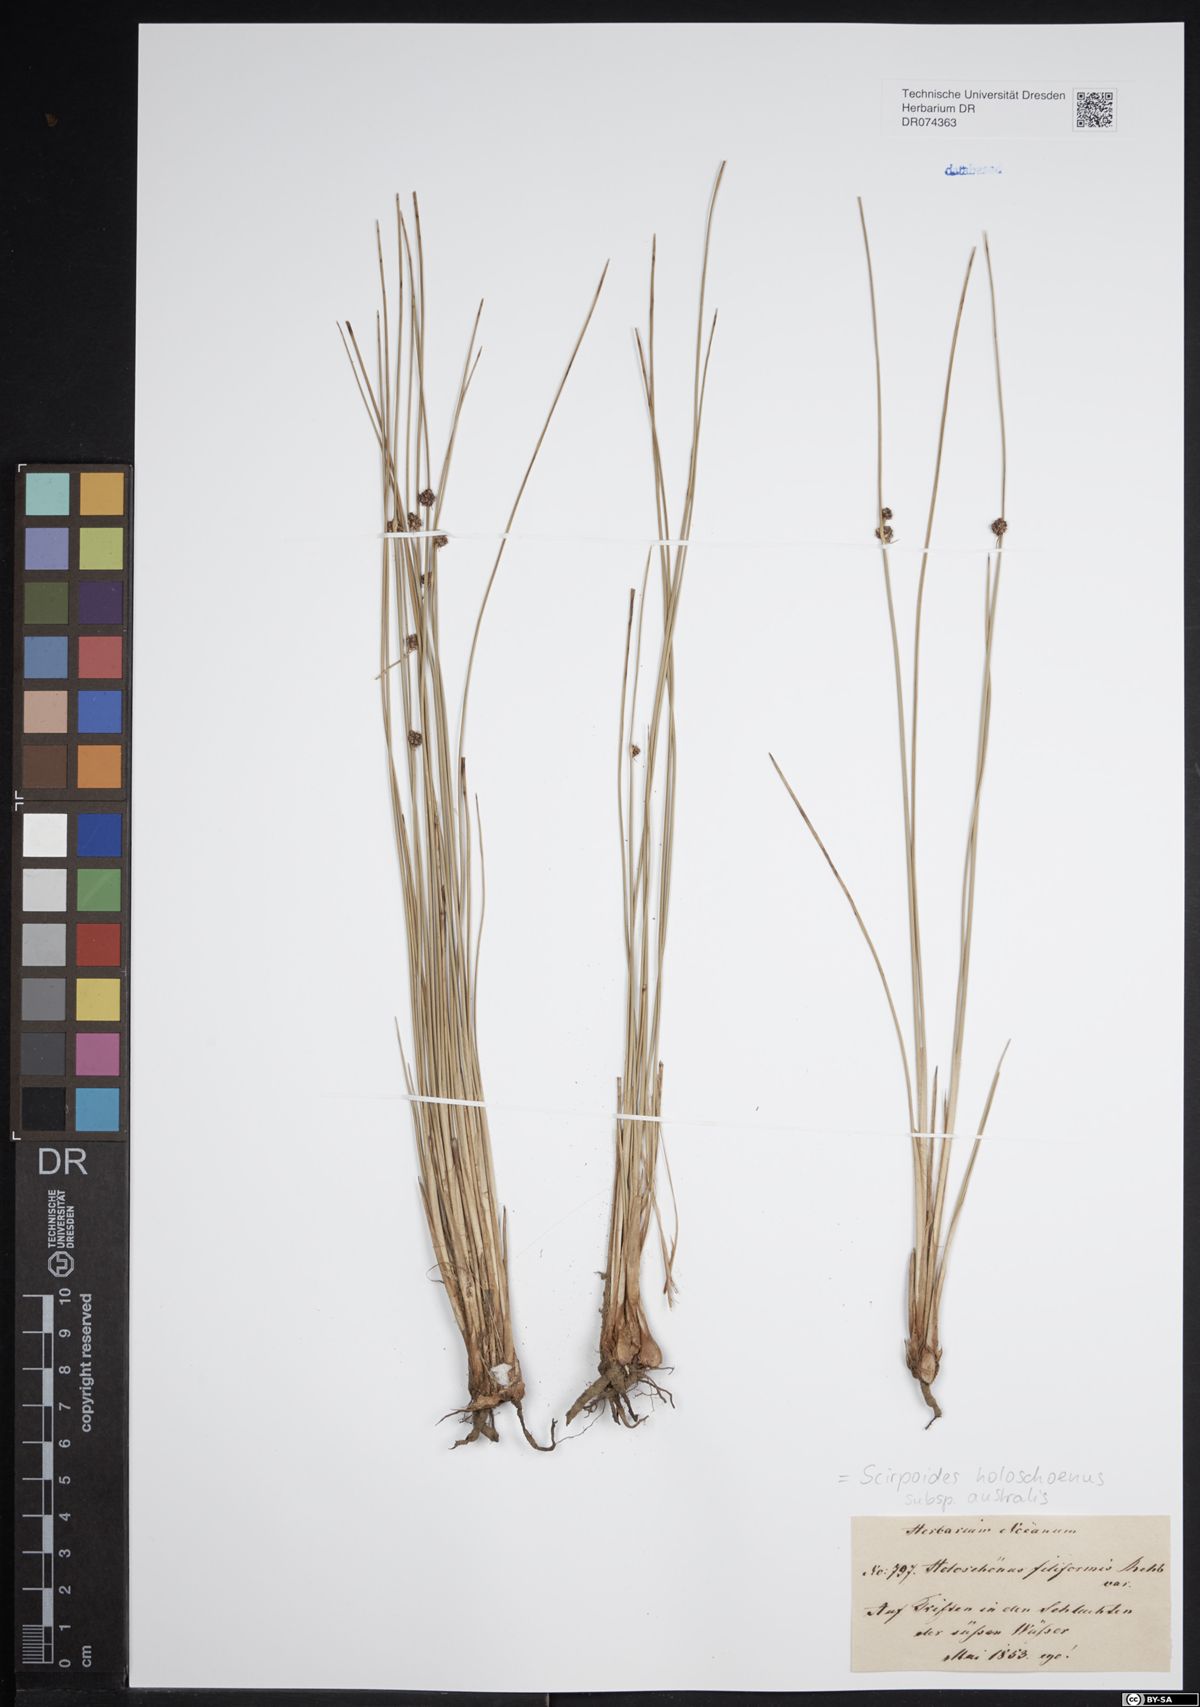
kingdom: Plantae
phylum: Tracheophyta
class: Liliopsida
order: Poales
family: Cyperaceae
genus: Scirpoides
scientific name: Scirpoides holoschoenus
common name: Round-headed club-rush
